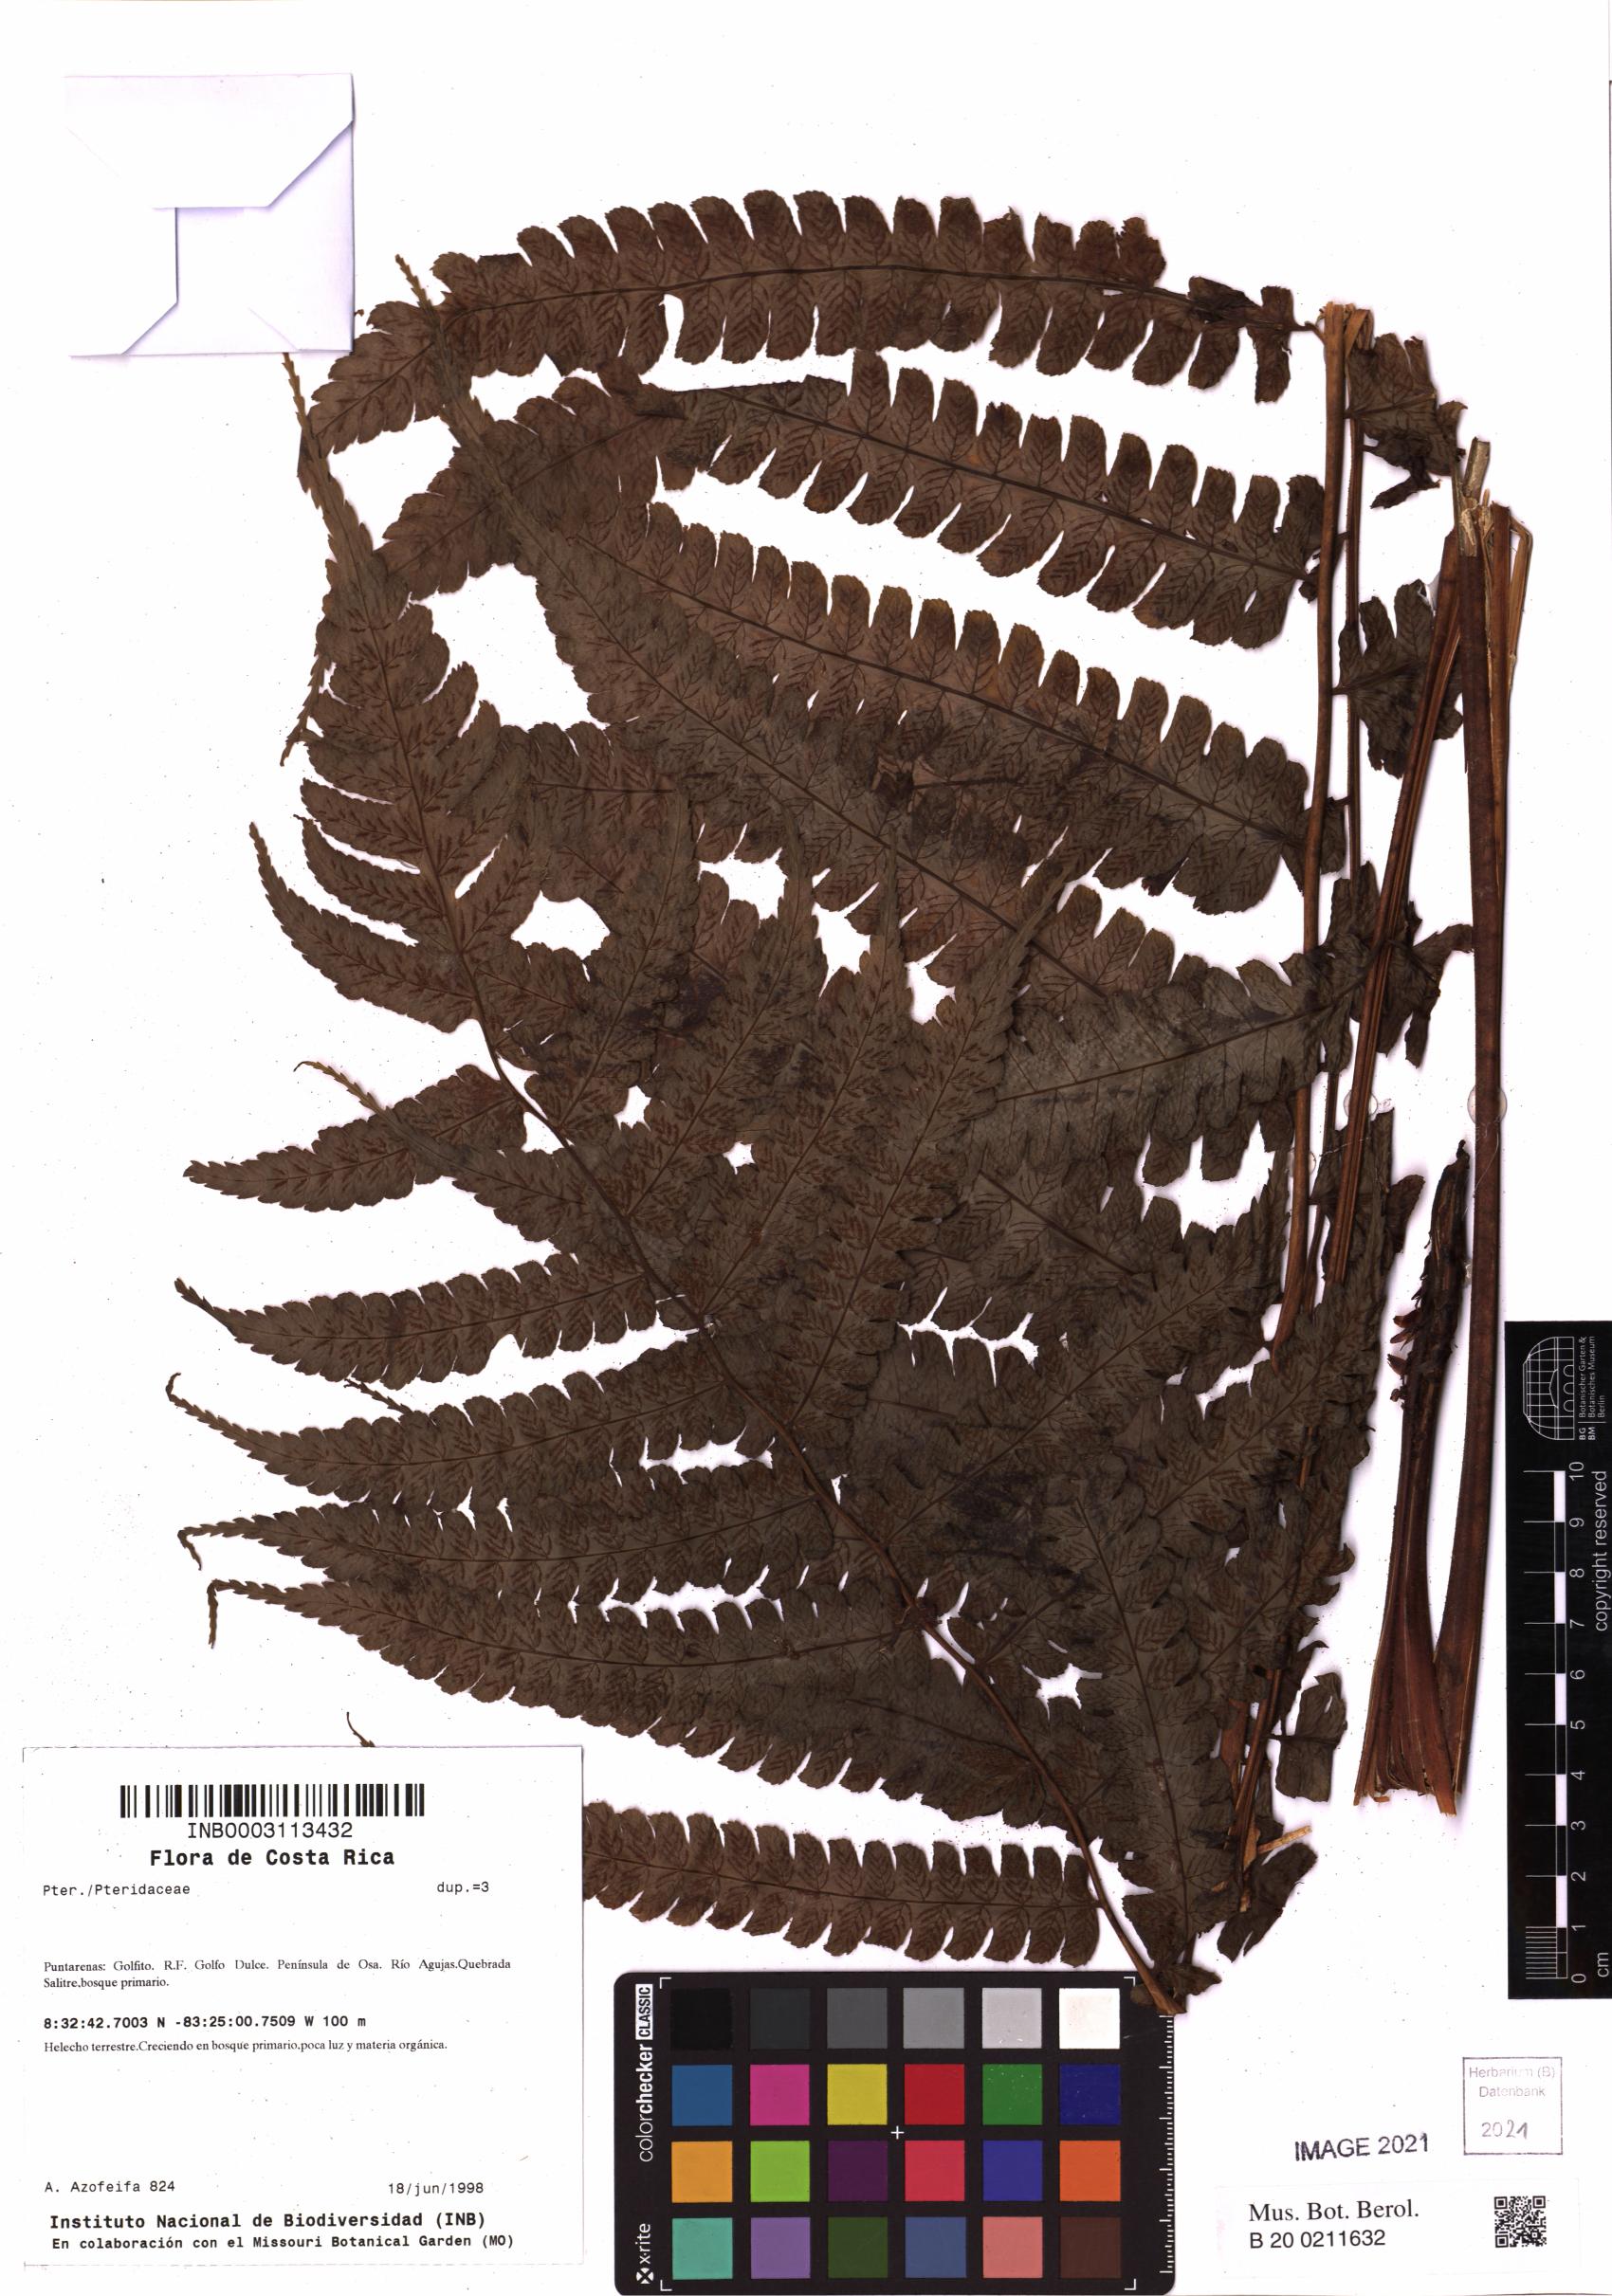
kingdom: Plantae
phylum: Tracheophyta
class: Polypodiopsida
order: Polypodiales
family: Pteridaceae
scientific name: Pteridaceae
